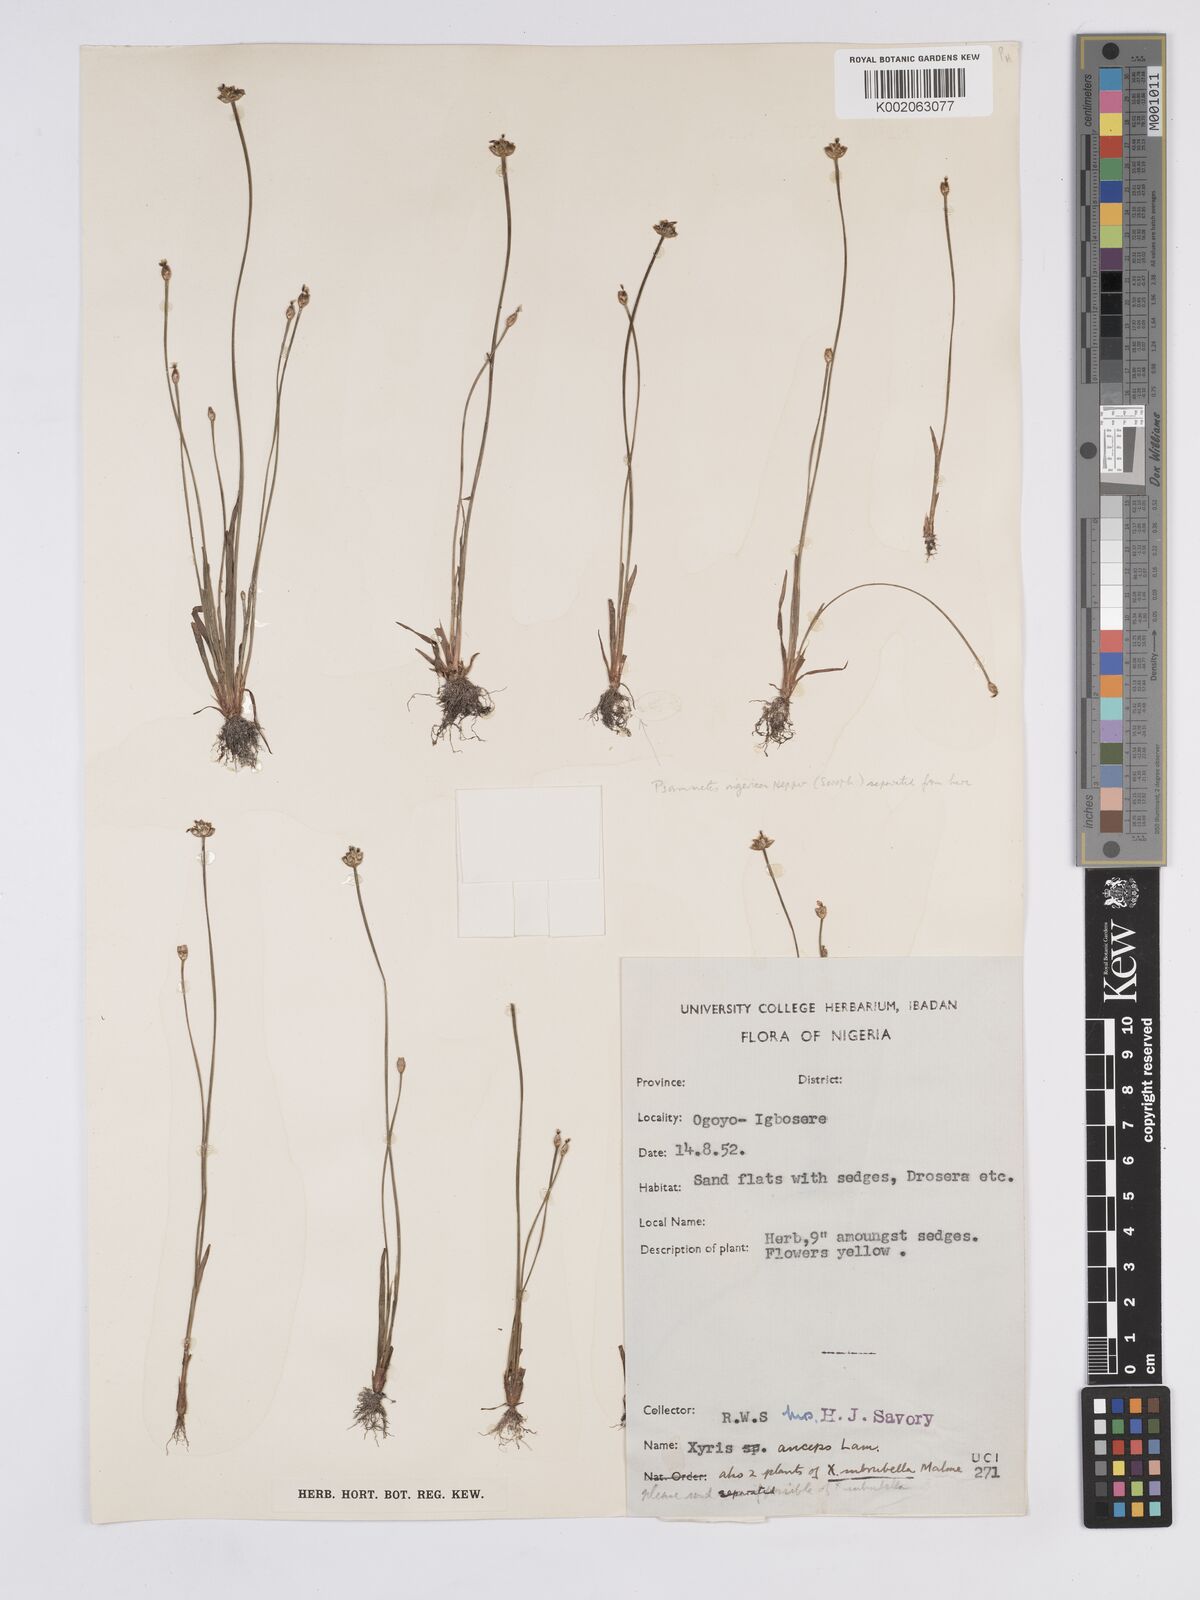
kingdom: Plantae
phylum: Tracheophyta
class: Liliopsida
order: Poales
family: Xyridaceae
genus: Xyris
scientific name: Xyris anceps
